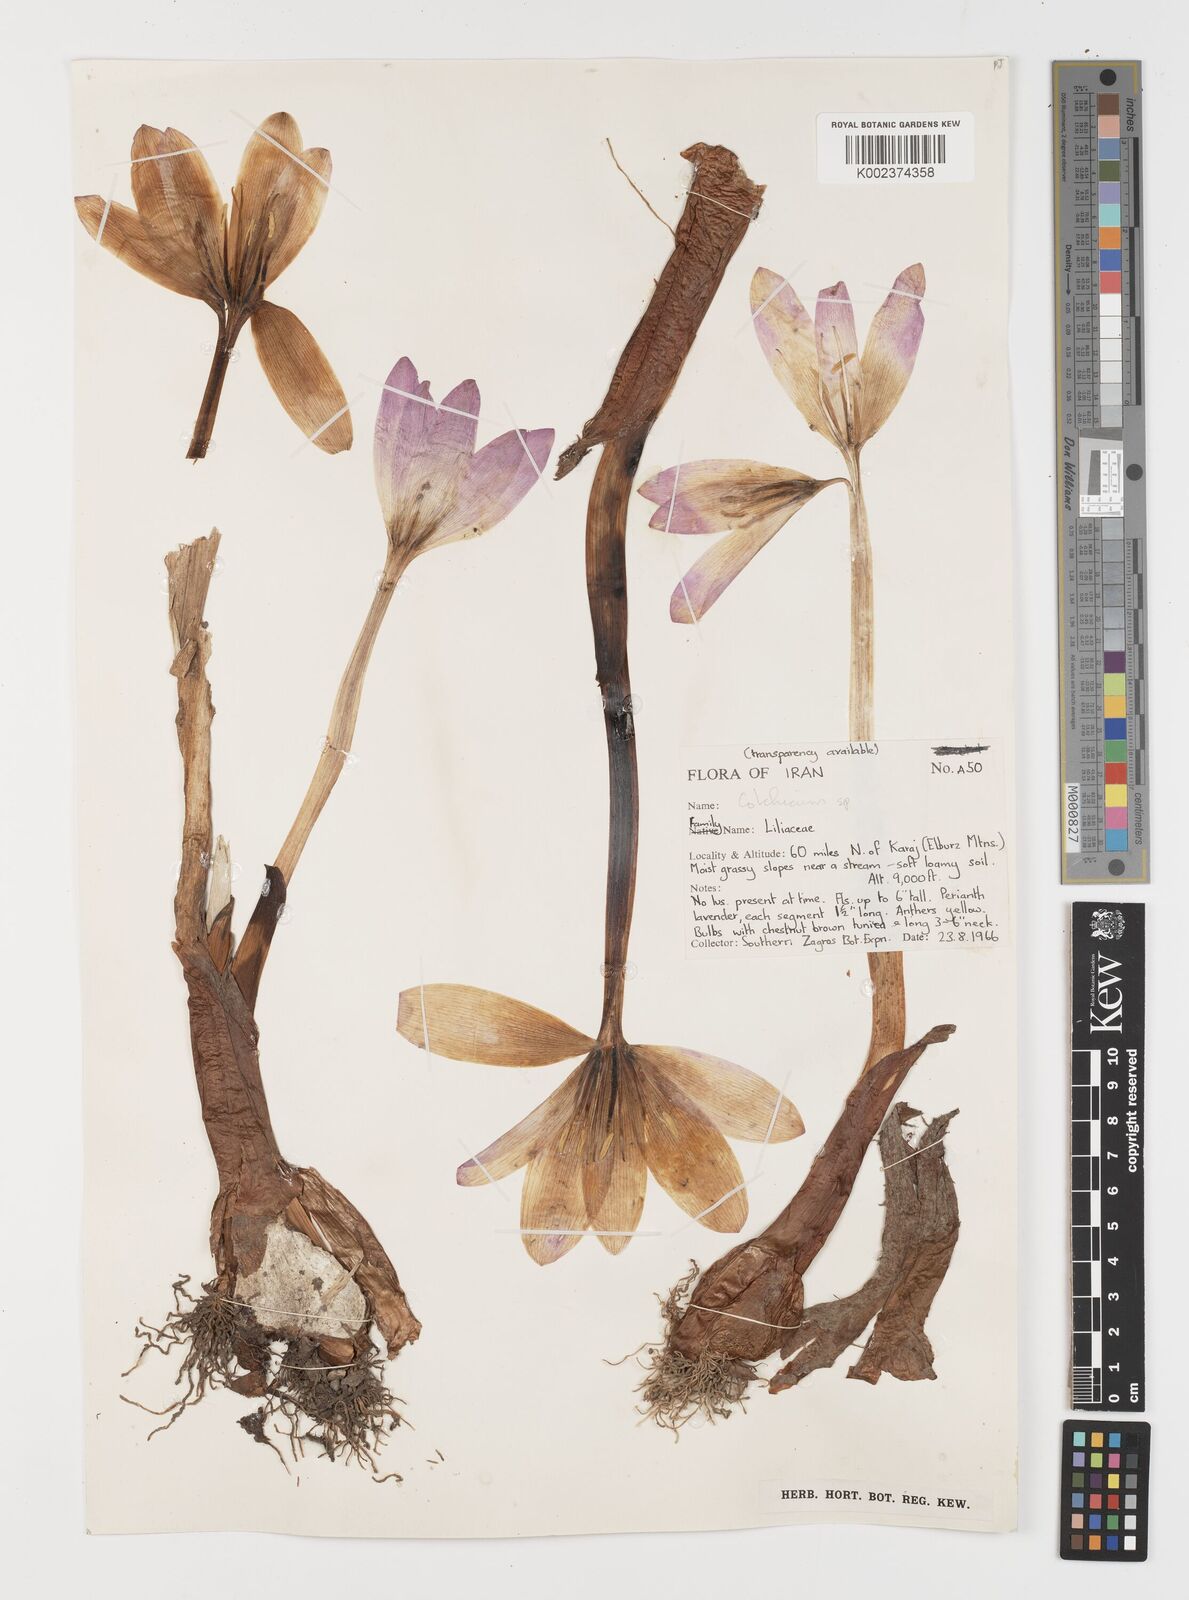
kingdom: Plantae
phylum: Tracheophyta
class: Liliopsida
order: Liliales
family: Colchicaceae
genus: Colchicum
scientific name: Colchicum
